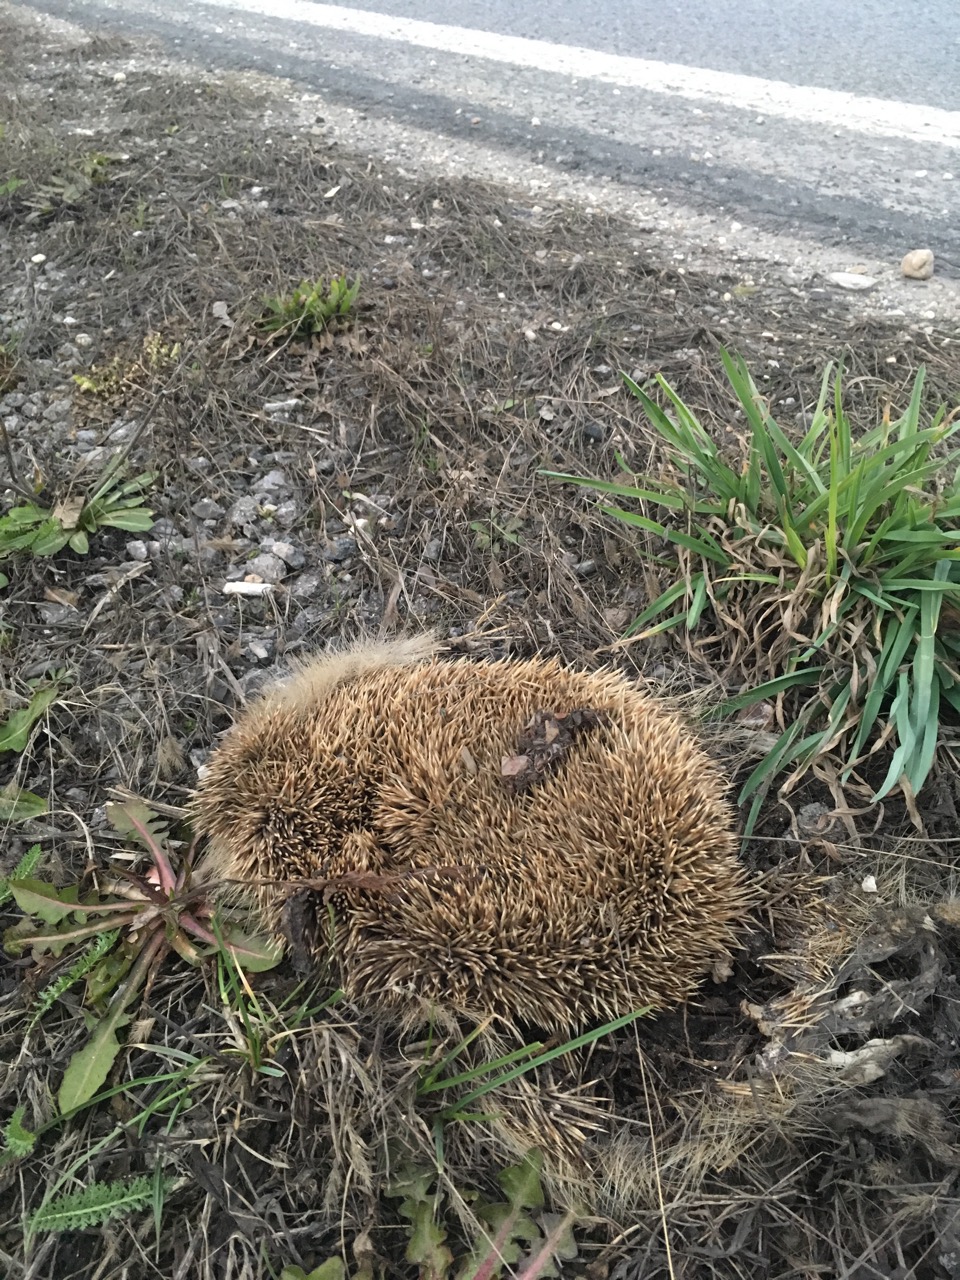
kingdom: Animalia
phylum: Chordata
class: Mammalia
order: Erinaceomorpha
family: Erinaceidae
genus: Erinaceus
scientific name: Erinaceus
